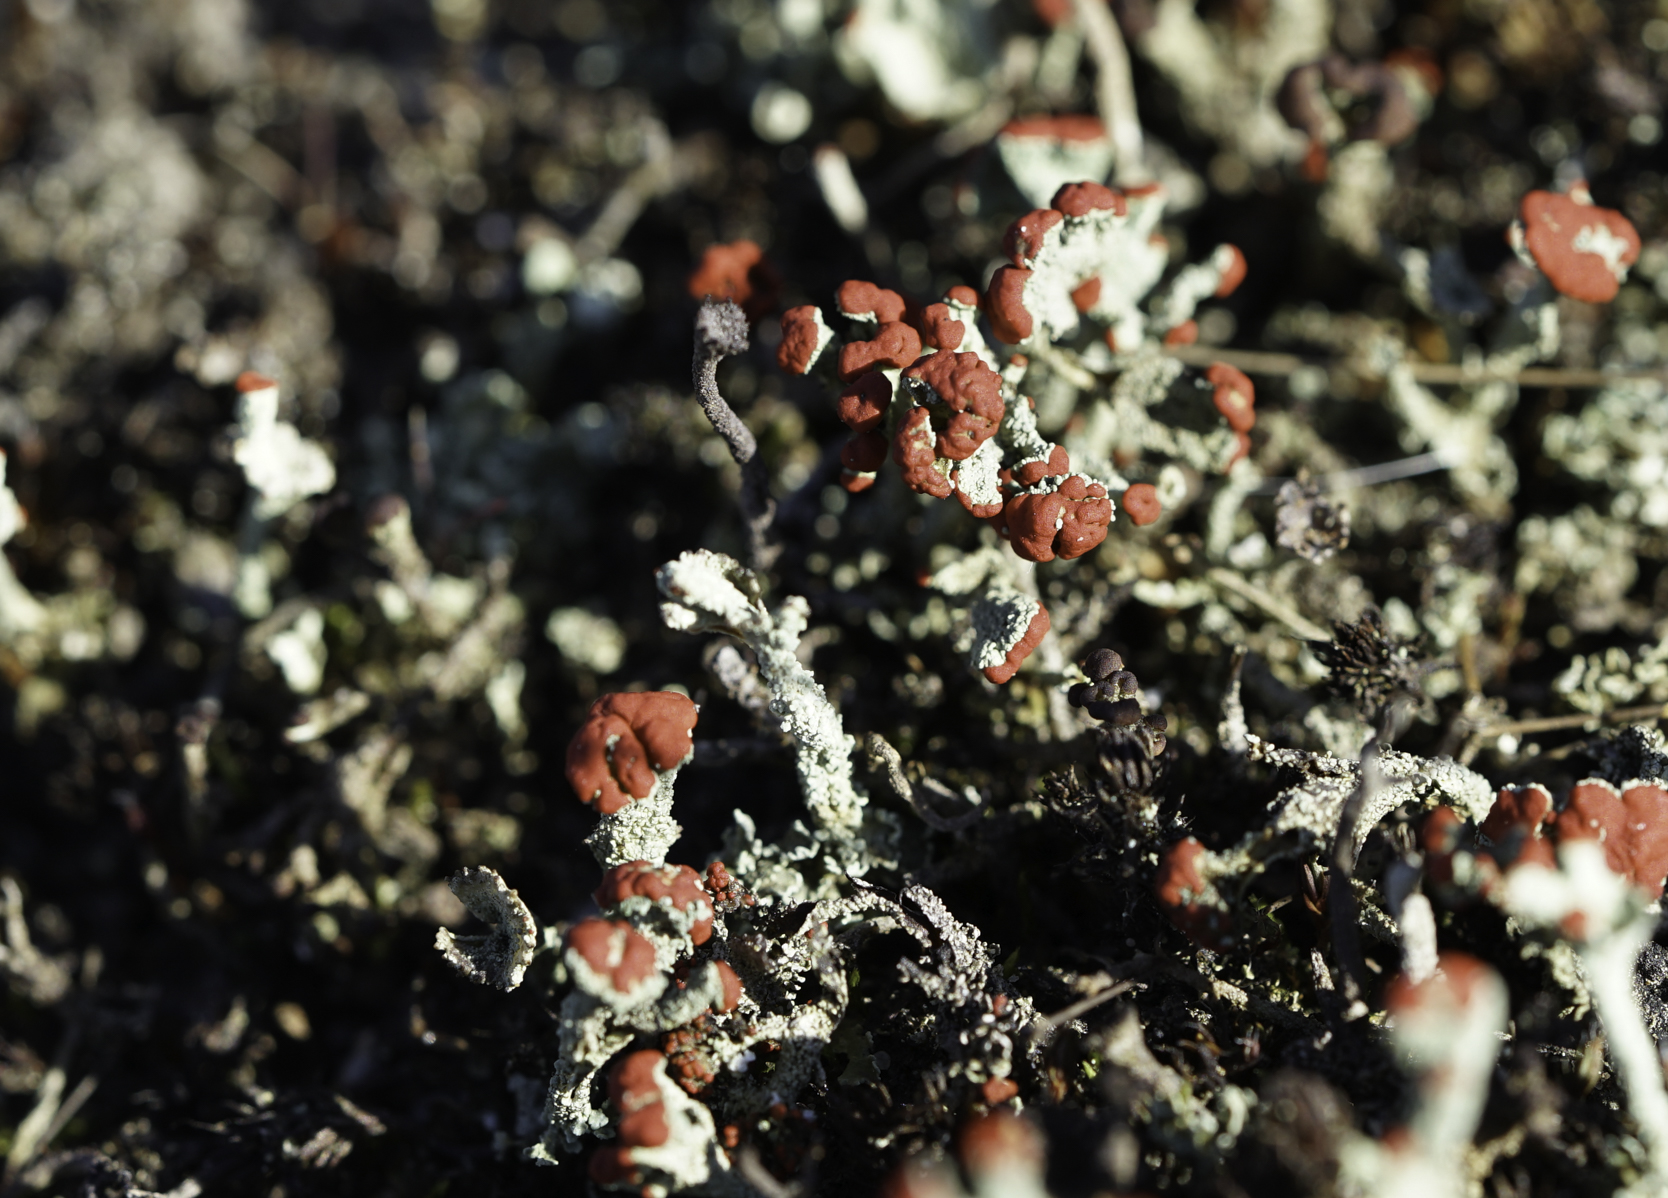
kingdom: Fungi
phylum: Ascomycota
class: Lecanoromycetes
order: Lecanorales
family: Cladoniaceae
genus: Cladonia
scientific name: Cladonia coccifera
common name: Scarlet-cup lichen
